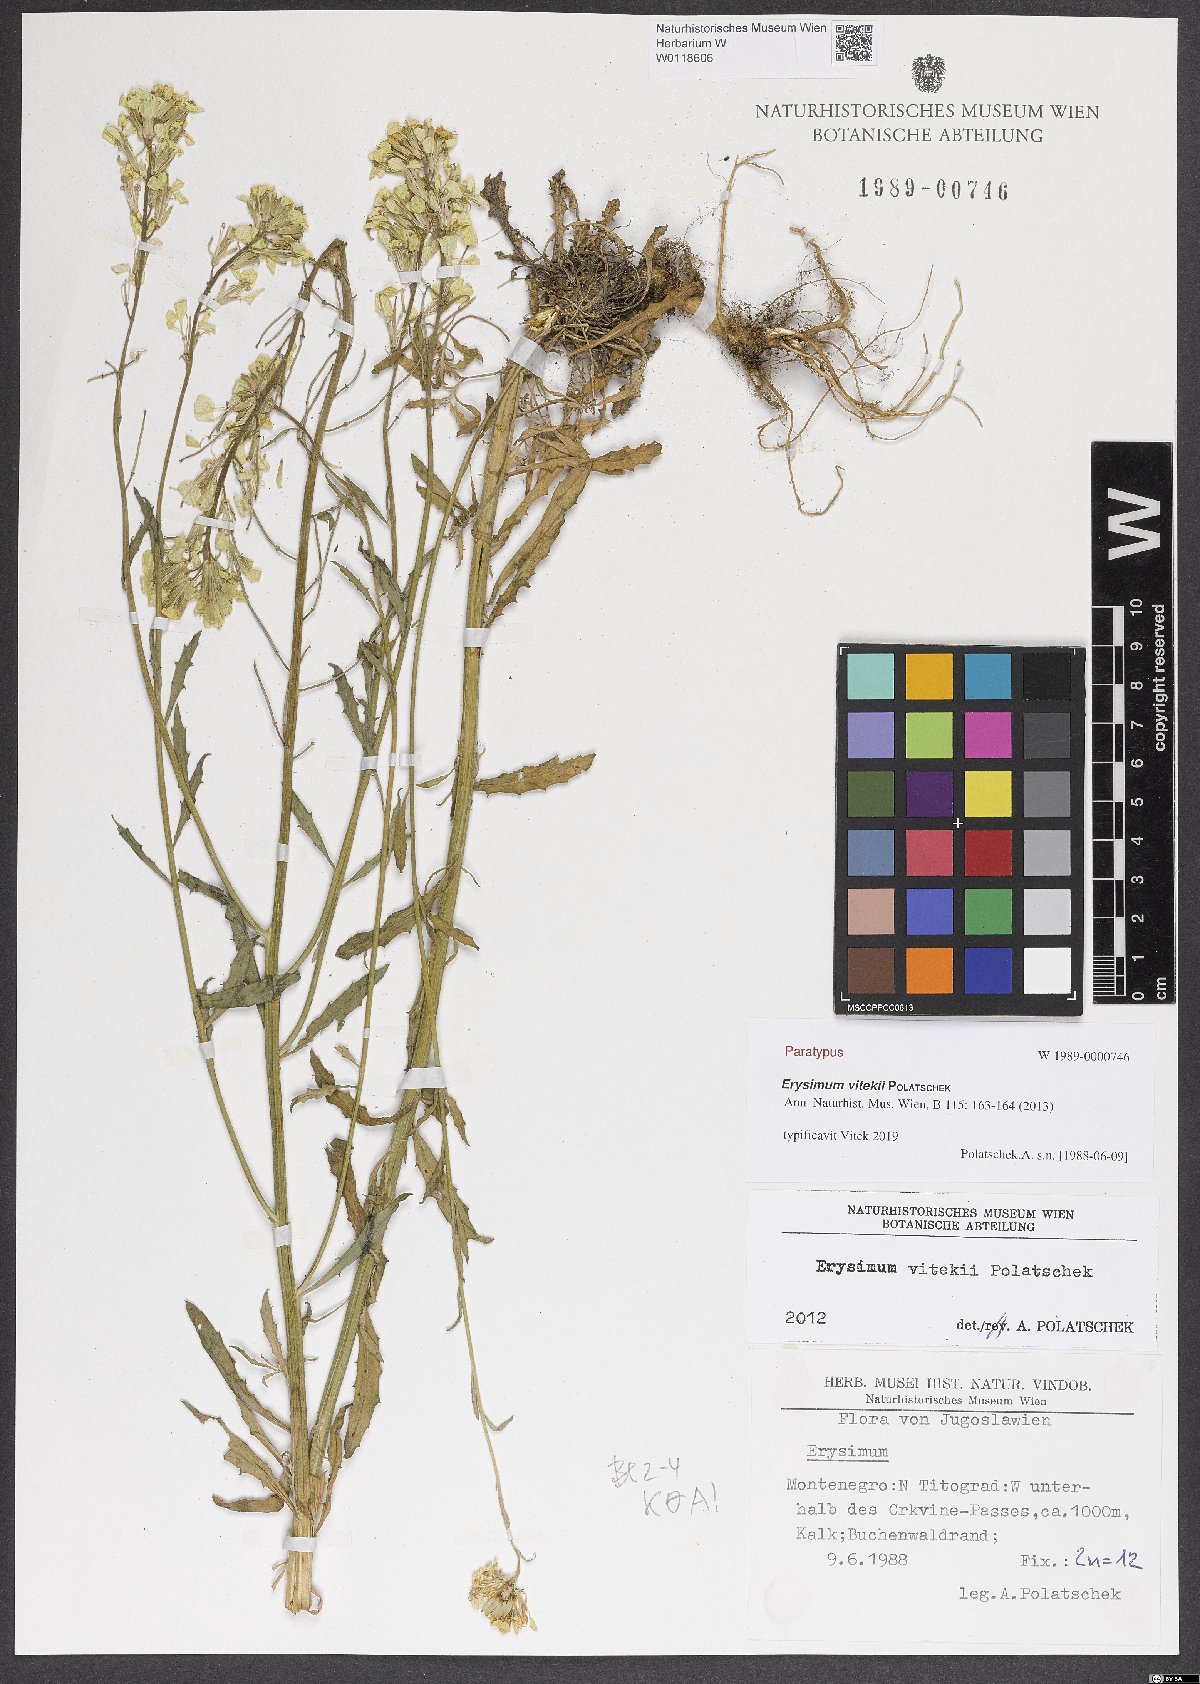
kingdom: Plantae
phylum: Tracheophyta
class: Magnoliopsida
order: Brassicales
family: Brassicaceae
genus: Erysimum
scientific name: Erysimum vitekii
